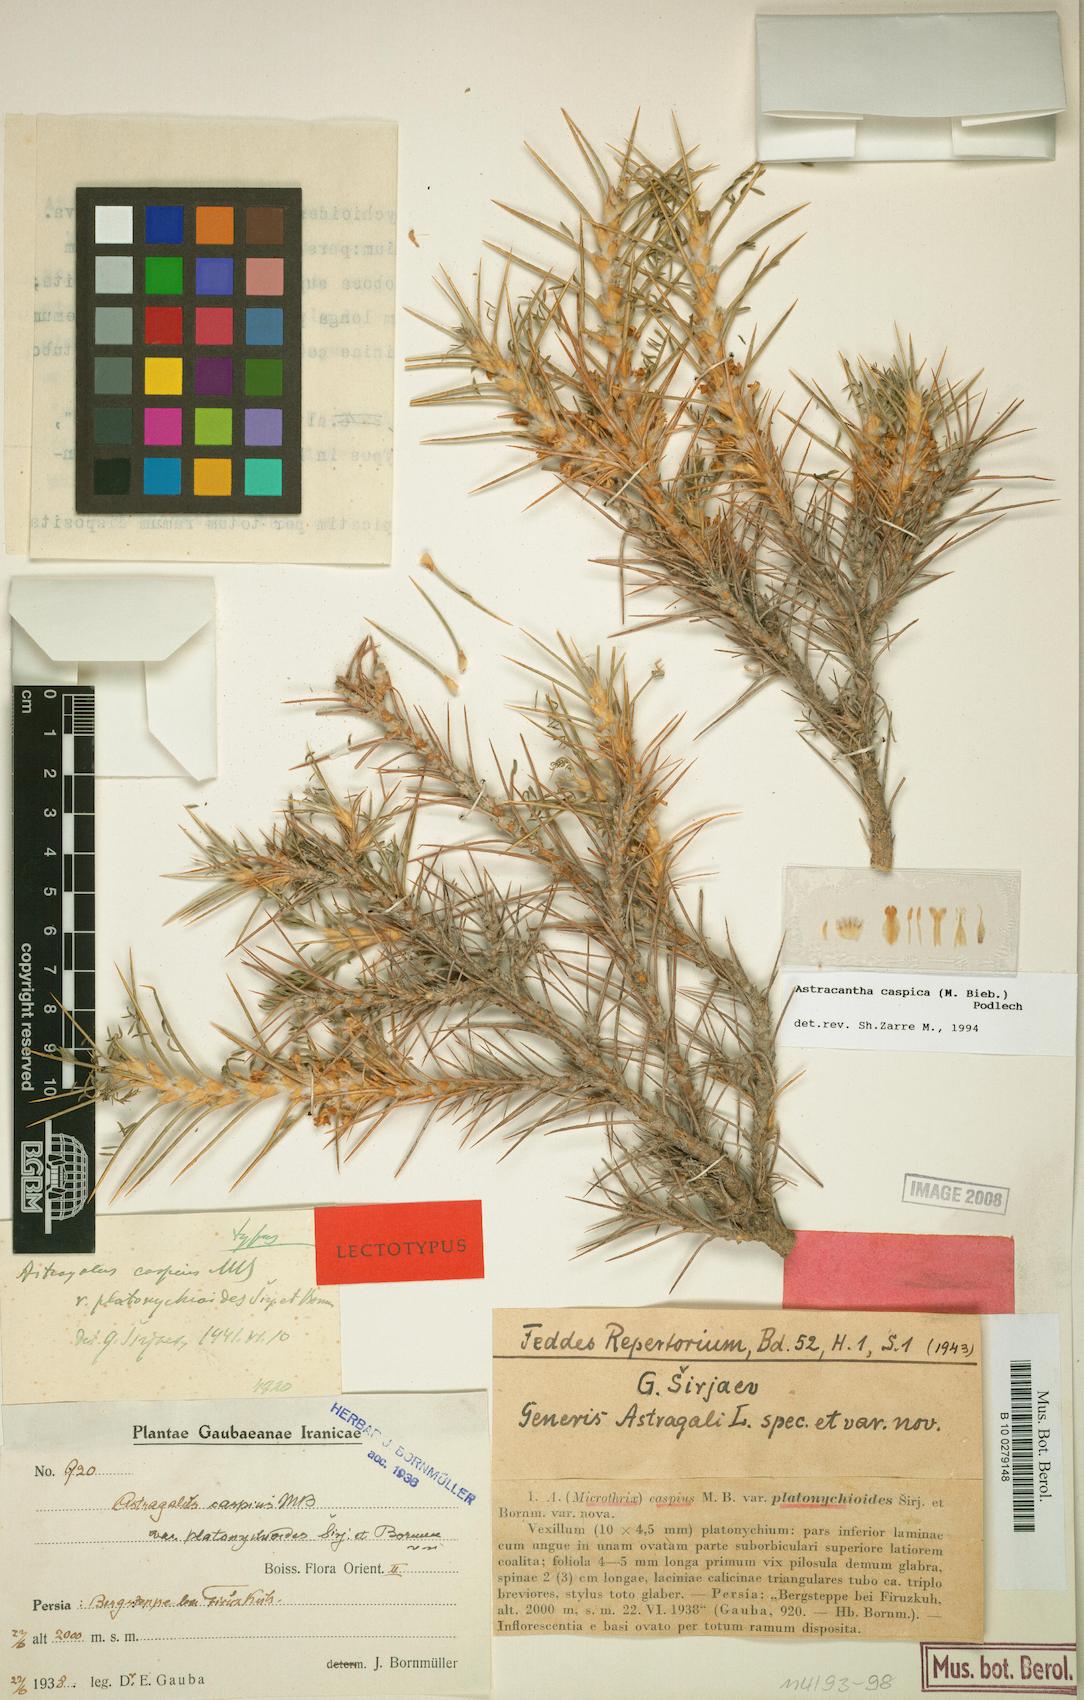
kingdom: Plantae
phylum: Tracheophyta
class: Magnoliopsida
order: Fabales
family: Fabaceae
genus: Astragalus
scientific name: Astragalus caspicus
